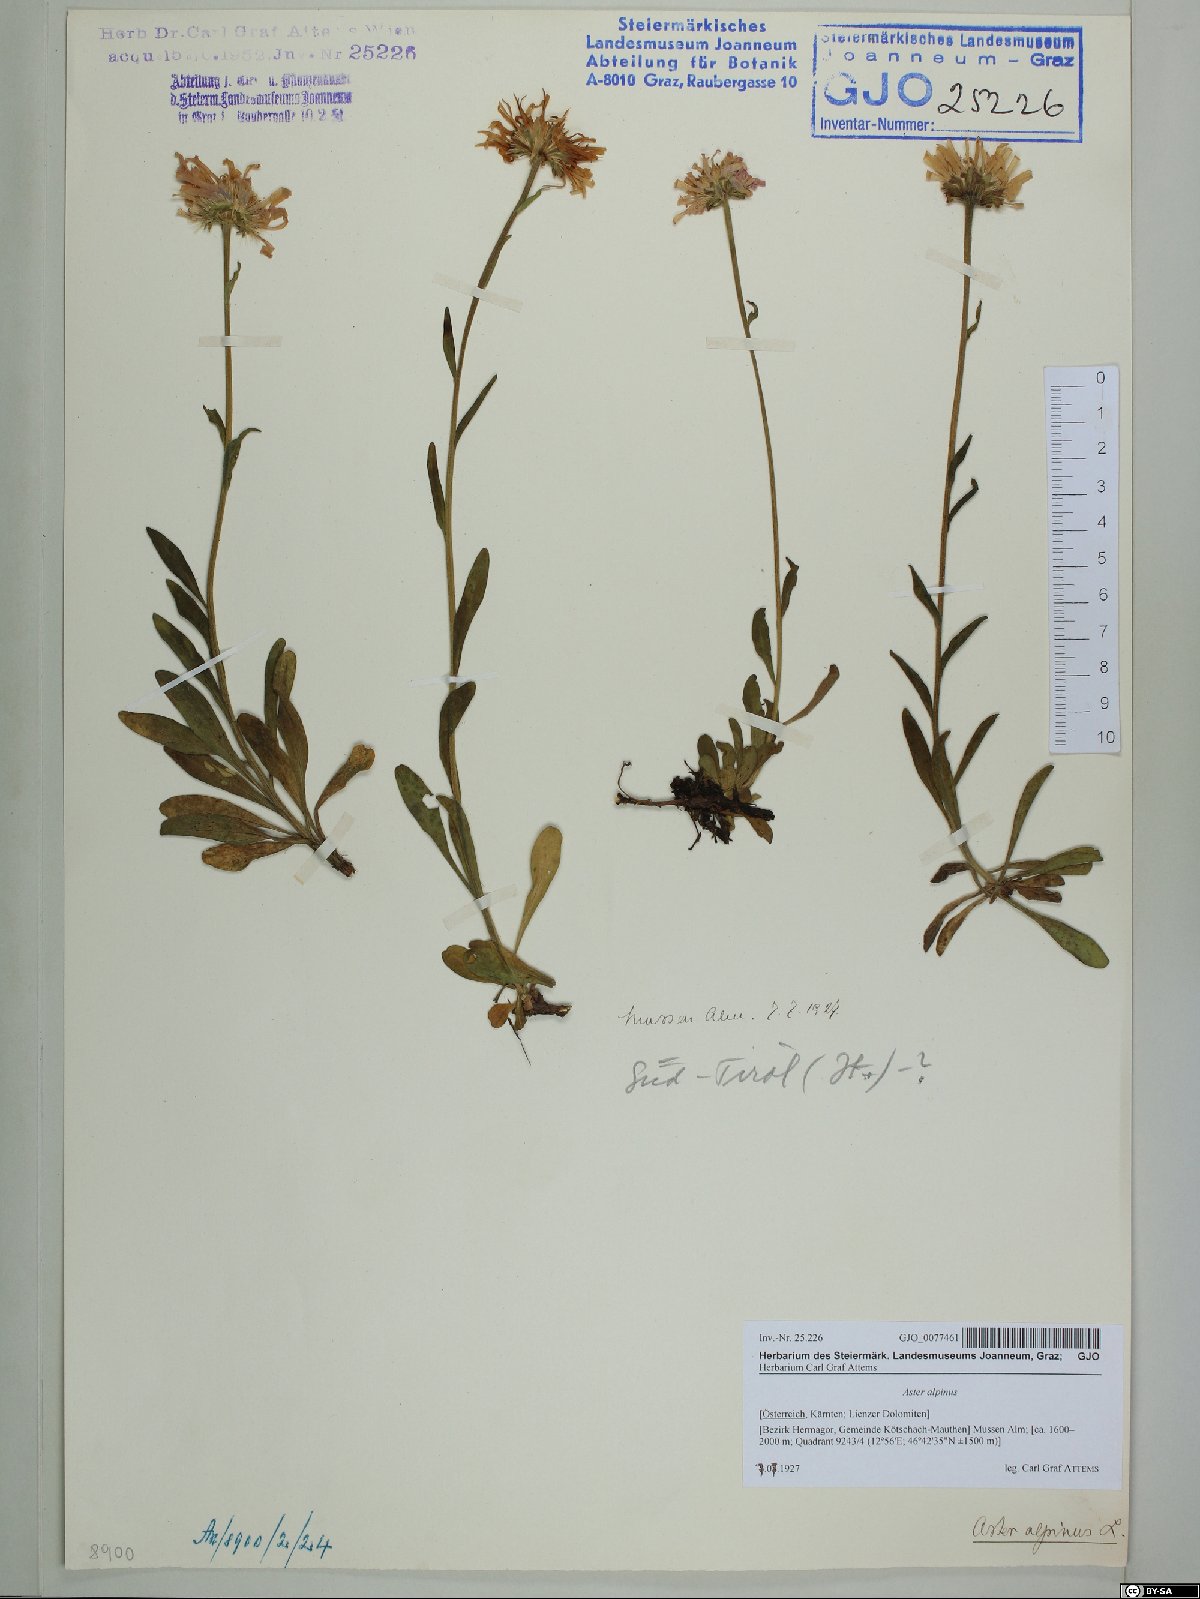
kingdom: Plantae
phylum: Tracheophyta
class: Magnoliopsida
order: Asterales
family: Asteraceae
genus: Aster
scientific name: Aster alpinus
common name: Alpine aster
